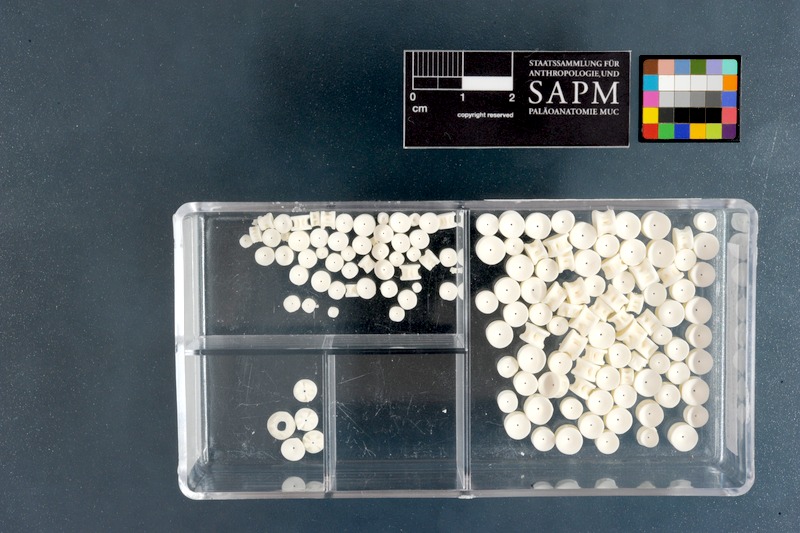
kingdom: Animalia
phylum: Chordata
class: Elasmobranchii
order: Rhinopristiformes
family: Rhinobatidae
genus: Acroteriobatus
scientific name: Acroteriobatus annulatus
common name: Lesser guitarfish
